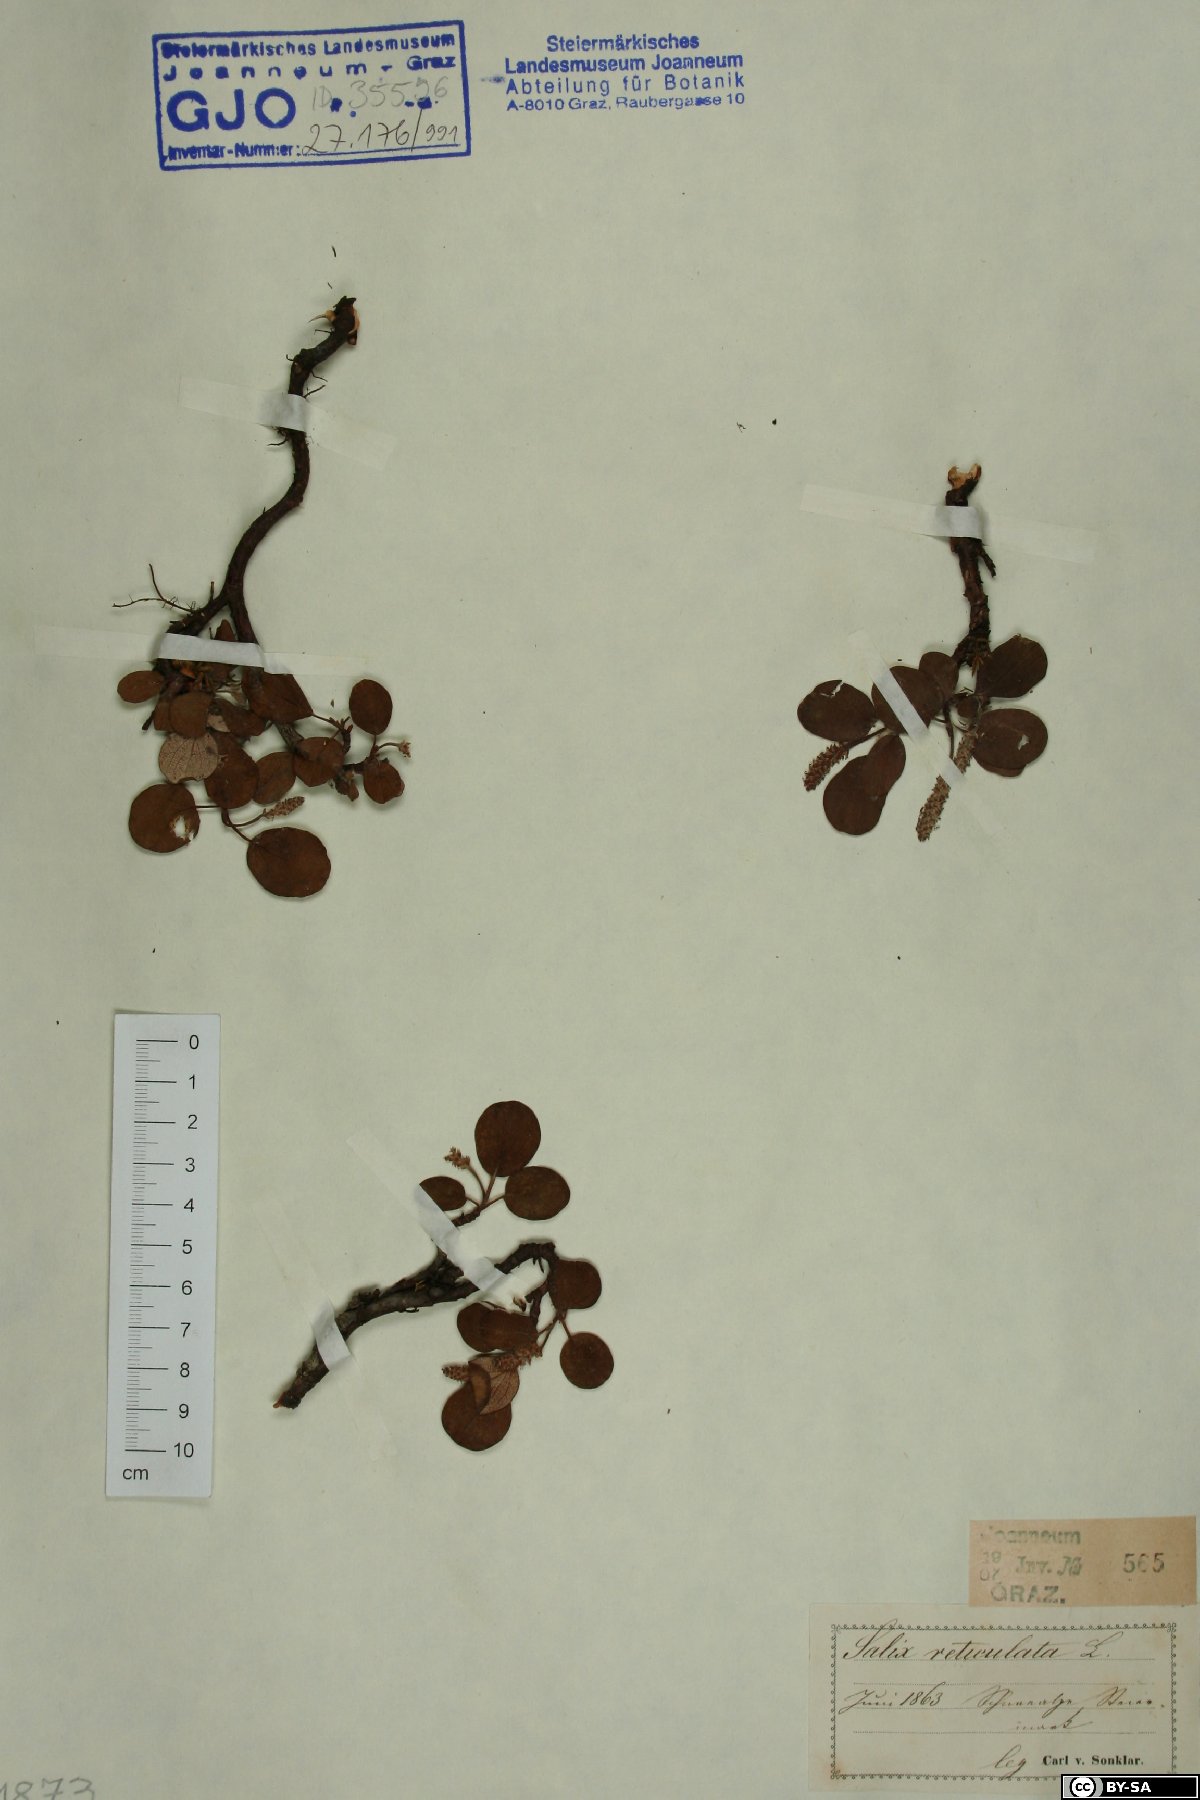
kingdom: Plantae
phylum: Tracheophyta
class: Magnoliopsida
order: Malpighiales
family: Salicaceae
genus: Salix
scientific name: Salix reticulata
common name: Net-leaved willow
